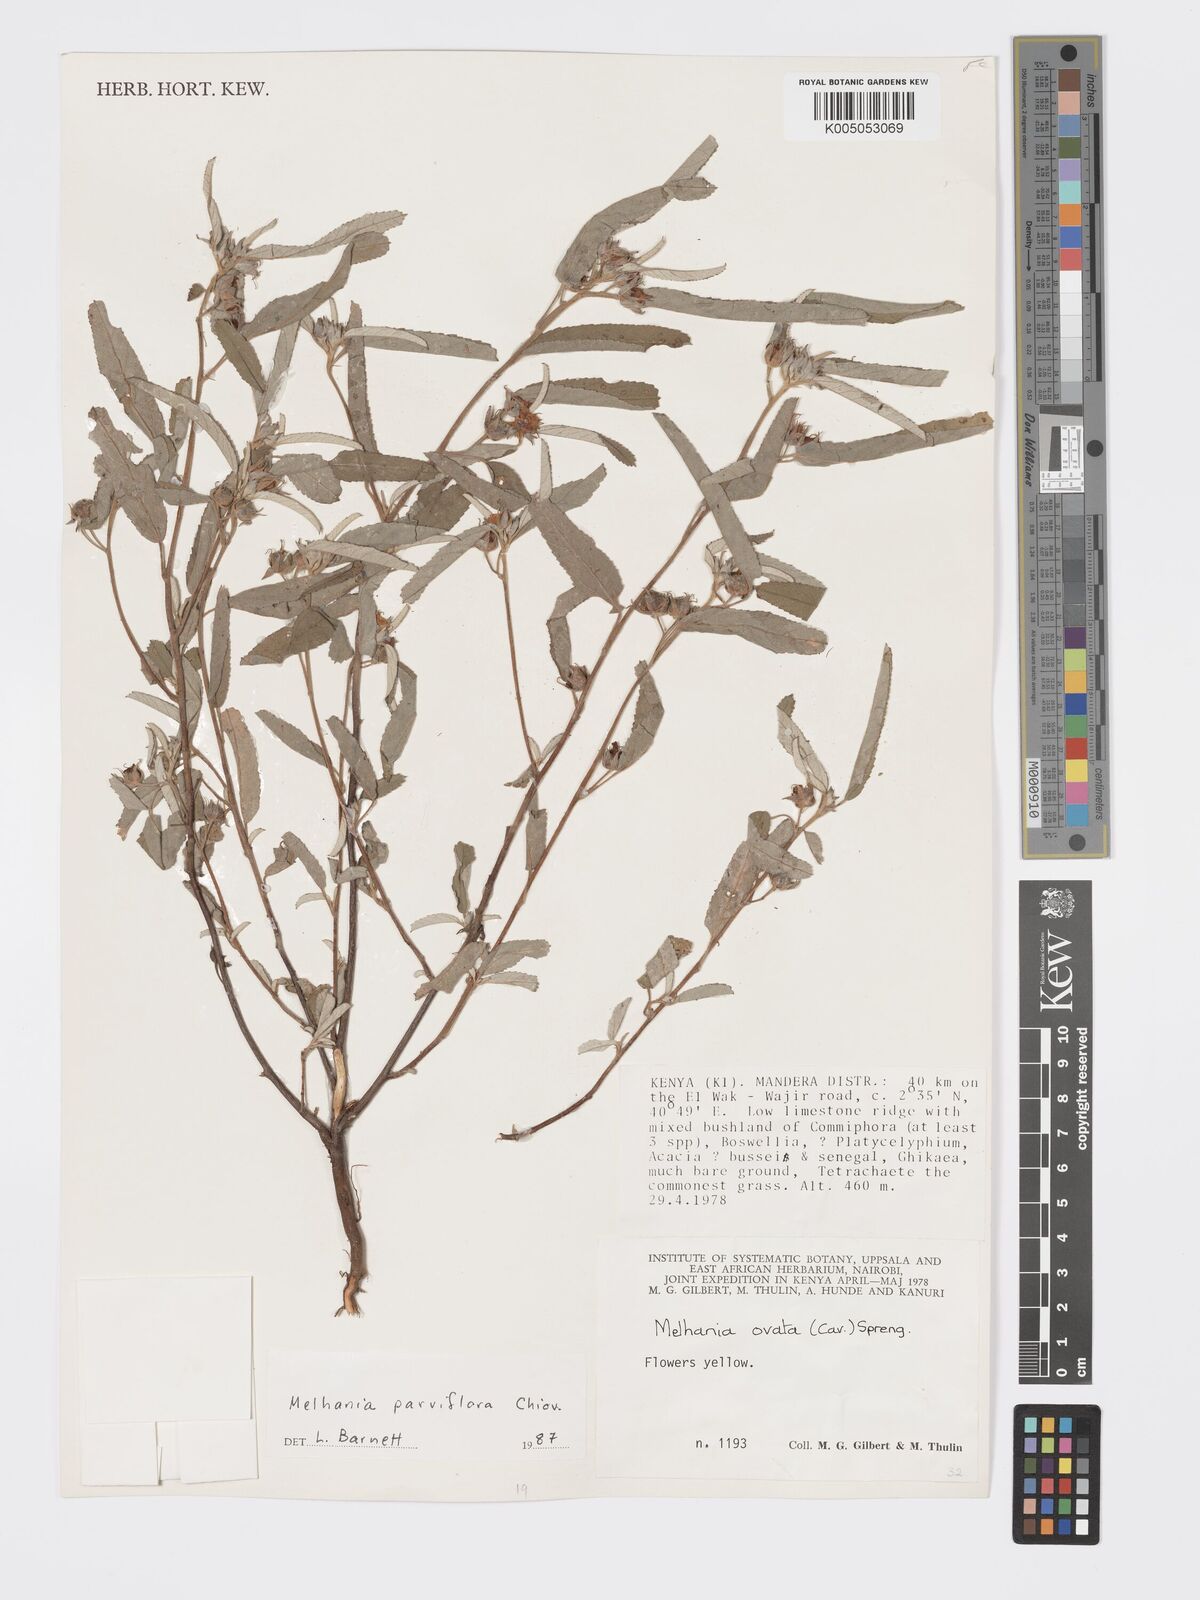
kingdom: Plantae
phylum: Tracheophyta
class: Magnoliopsida
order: Malvales
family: Malvaceae
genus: Melhania
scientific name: Melhania parviflora
